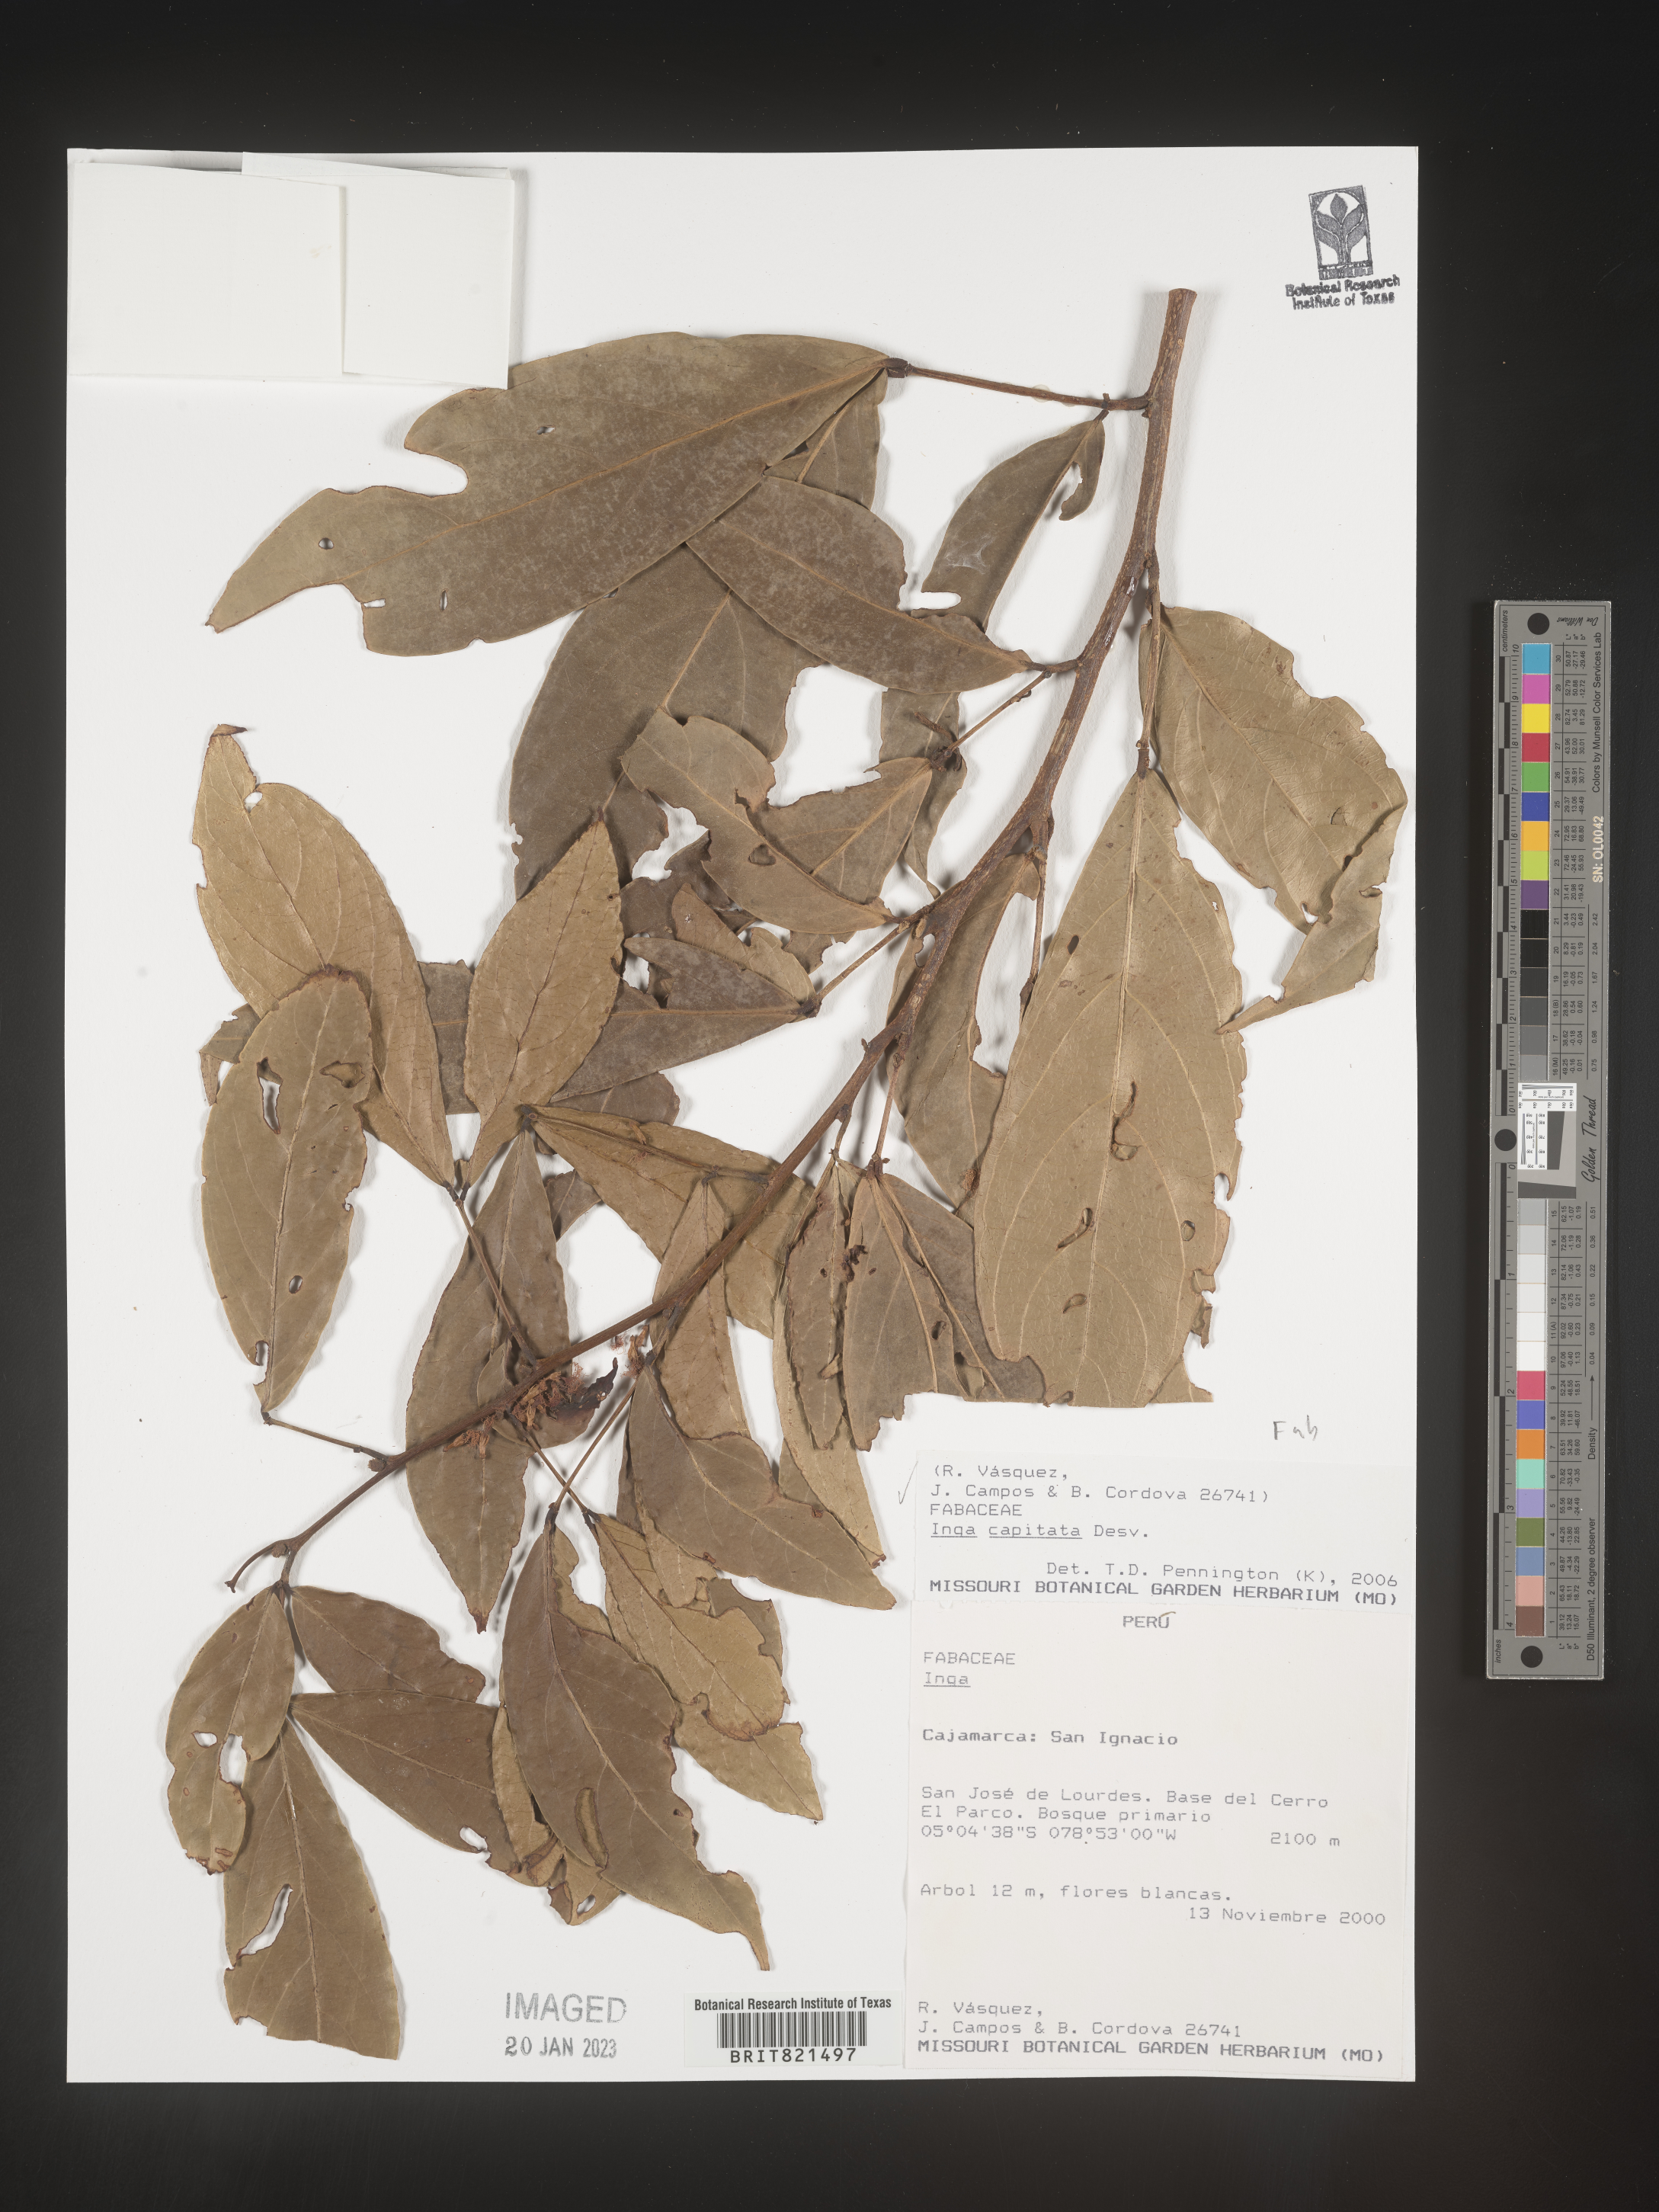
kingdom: Plantae
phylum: Tracheophyta
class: Magnoliopsida
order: Fabales
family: Fabaceae
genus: Inga
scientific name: Inga
